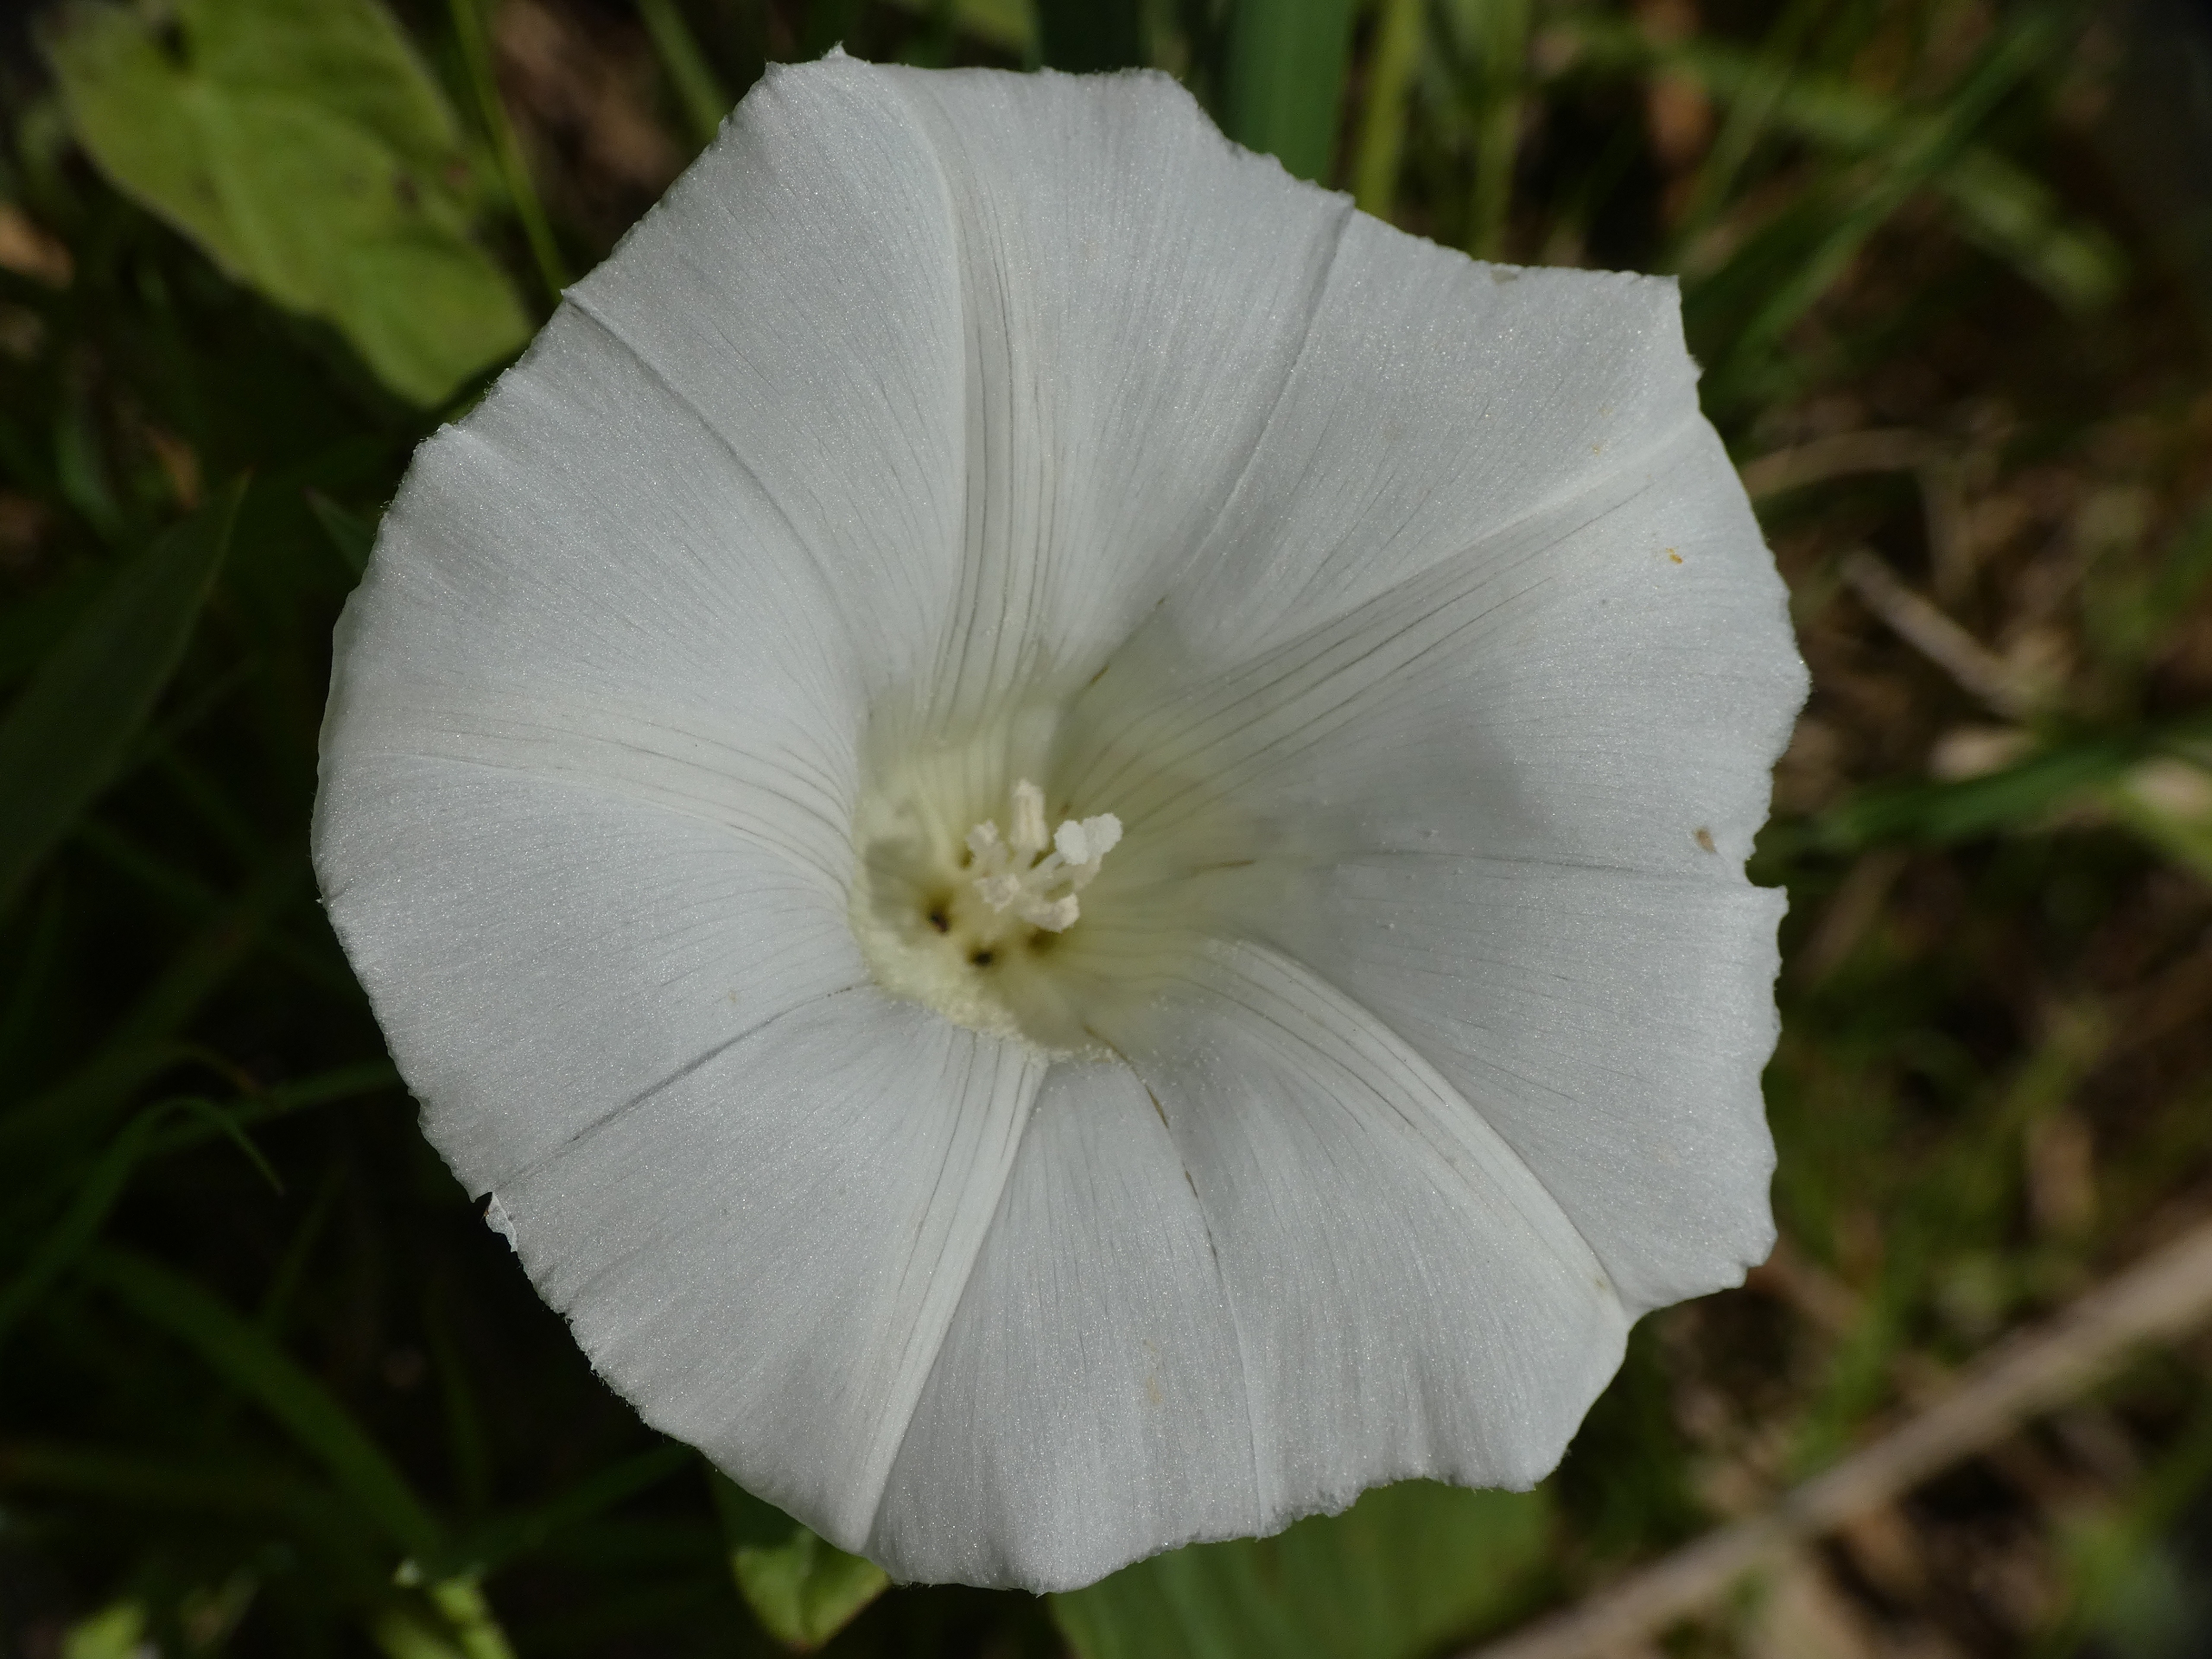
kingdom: Plantae
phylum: Tracheophyta
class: Magnoliopsida
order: Solanales
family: Convolvulaceae
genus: Calystegia
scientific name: Calystegia sepium
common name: Gærde-snerle
